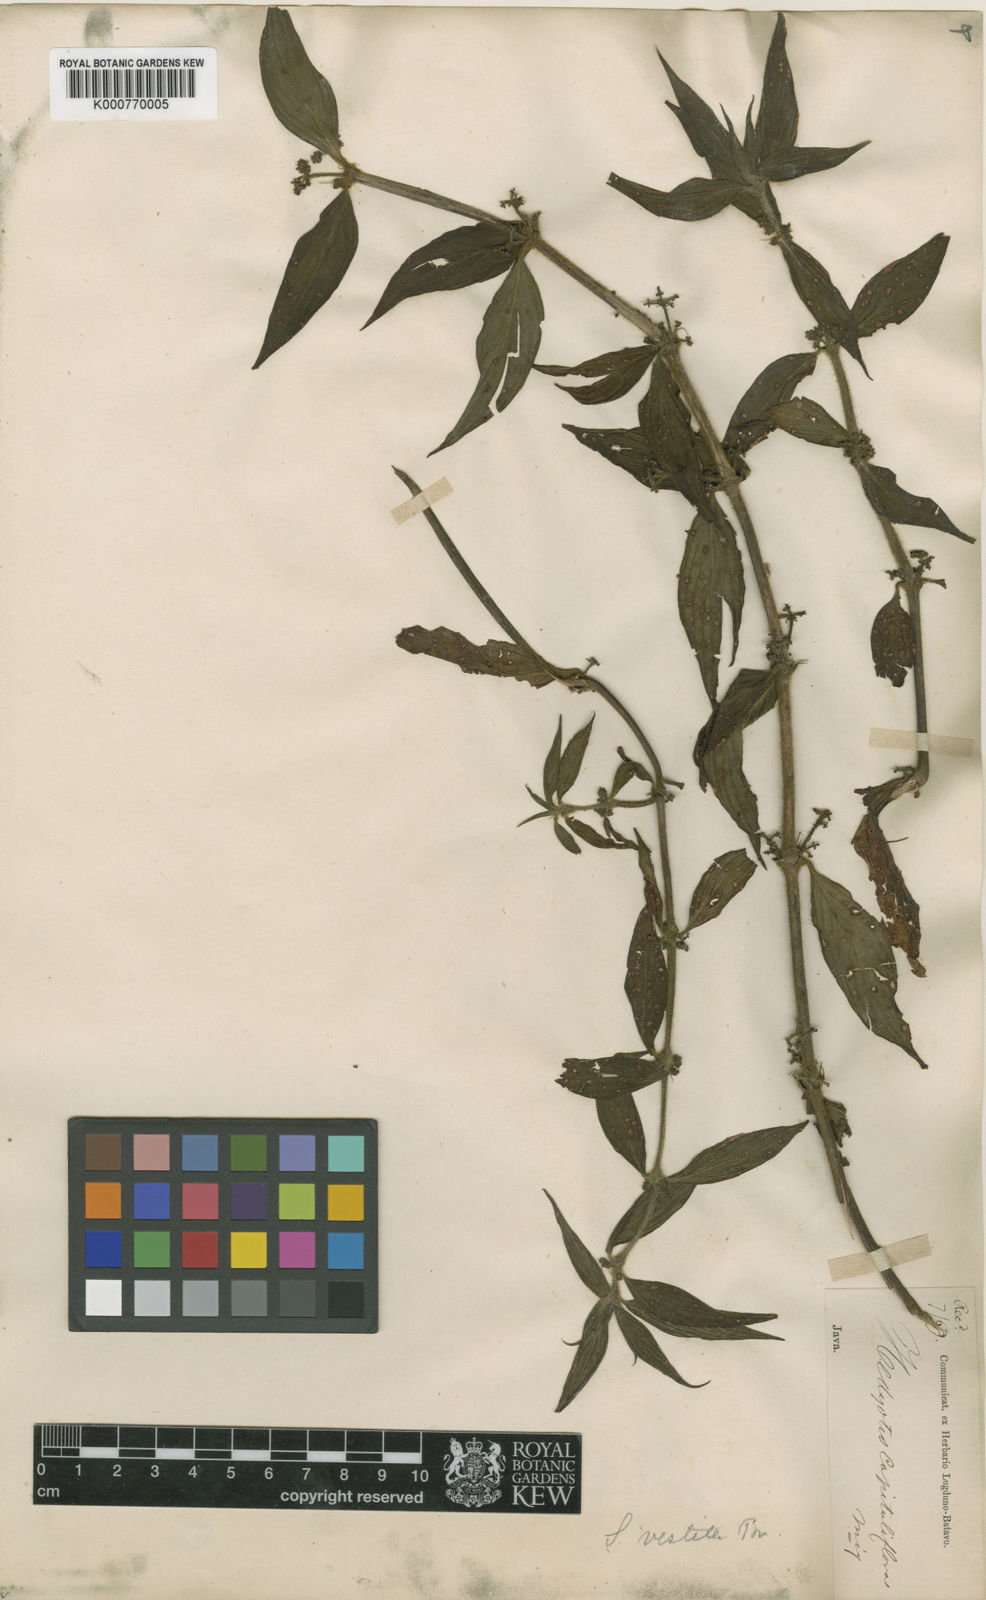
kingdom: Plantae
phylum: Tracheophyta
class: Magnoliopsida
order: Gentianales
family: Rubiaceae
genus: Exallage
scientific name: Exallage cristata
